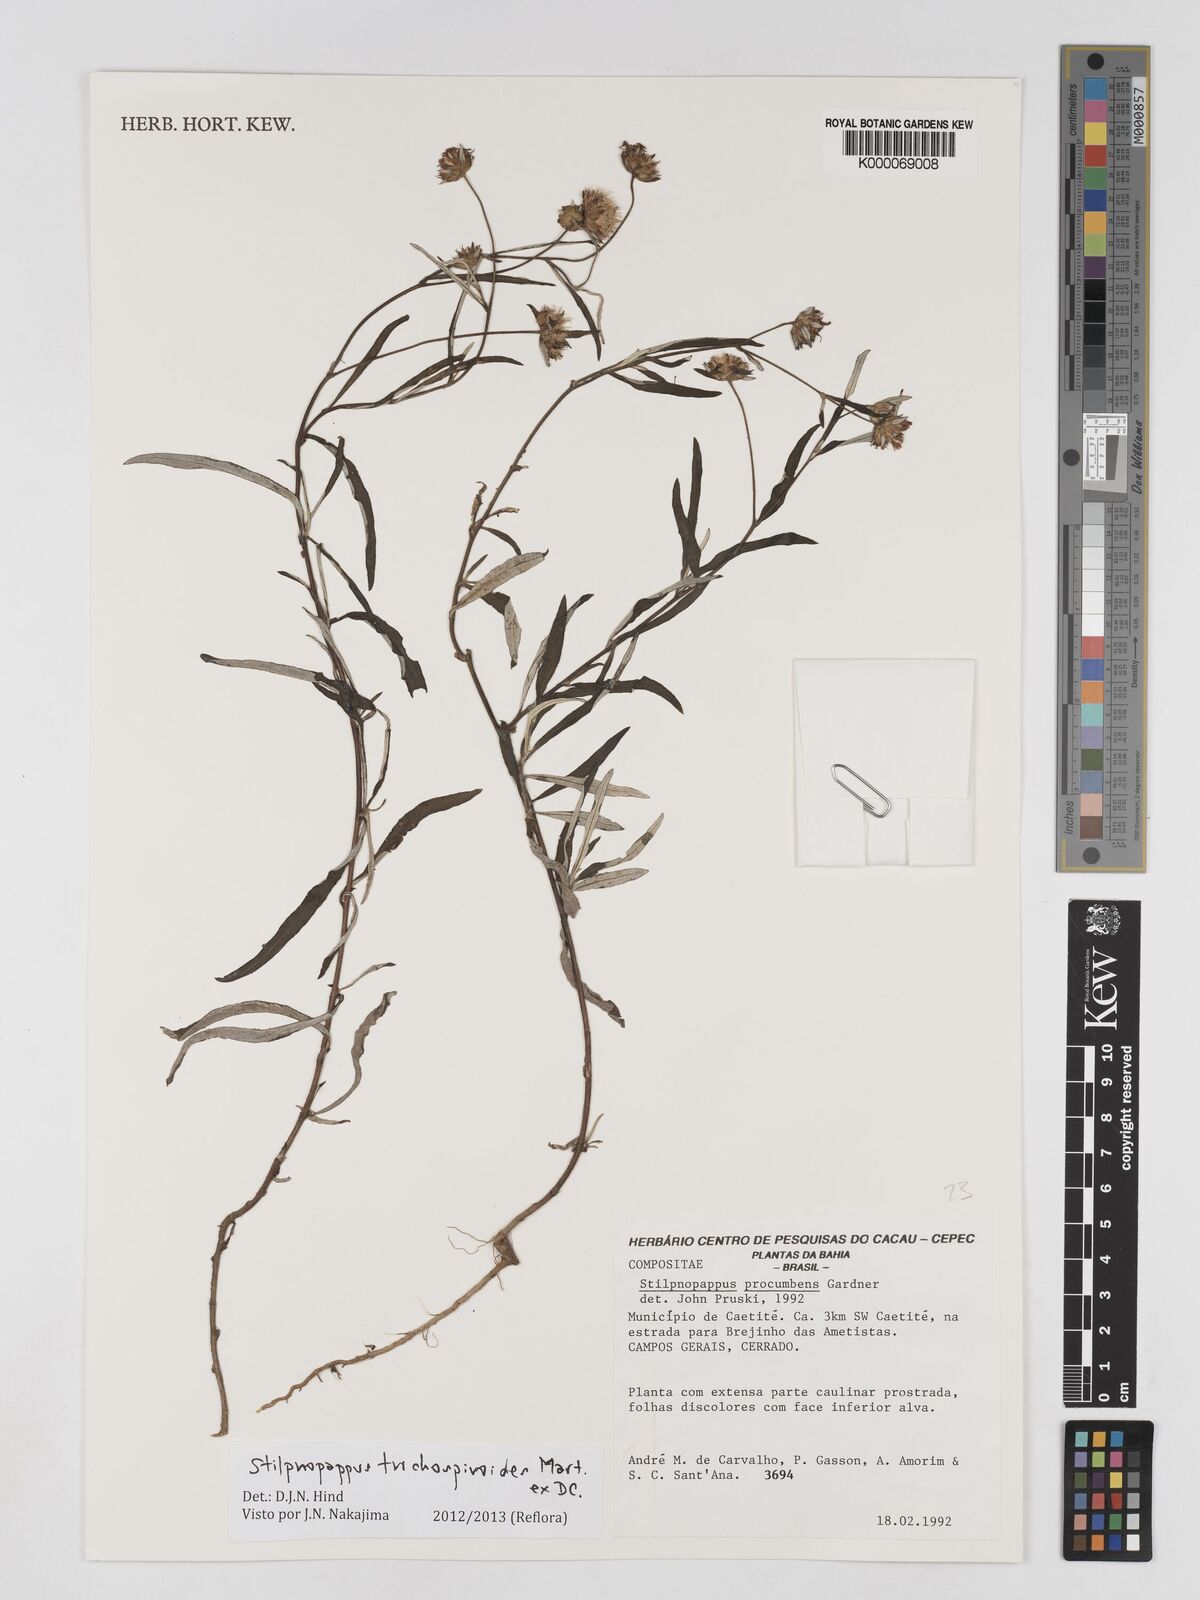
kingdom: Plantae
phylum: Tracheophyta
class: Magnoliopsida
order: Asterales
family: Asteraceae
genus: Stilpnopappus
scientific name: Stilpnopappus trichospiroides
